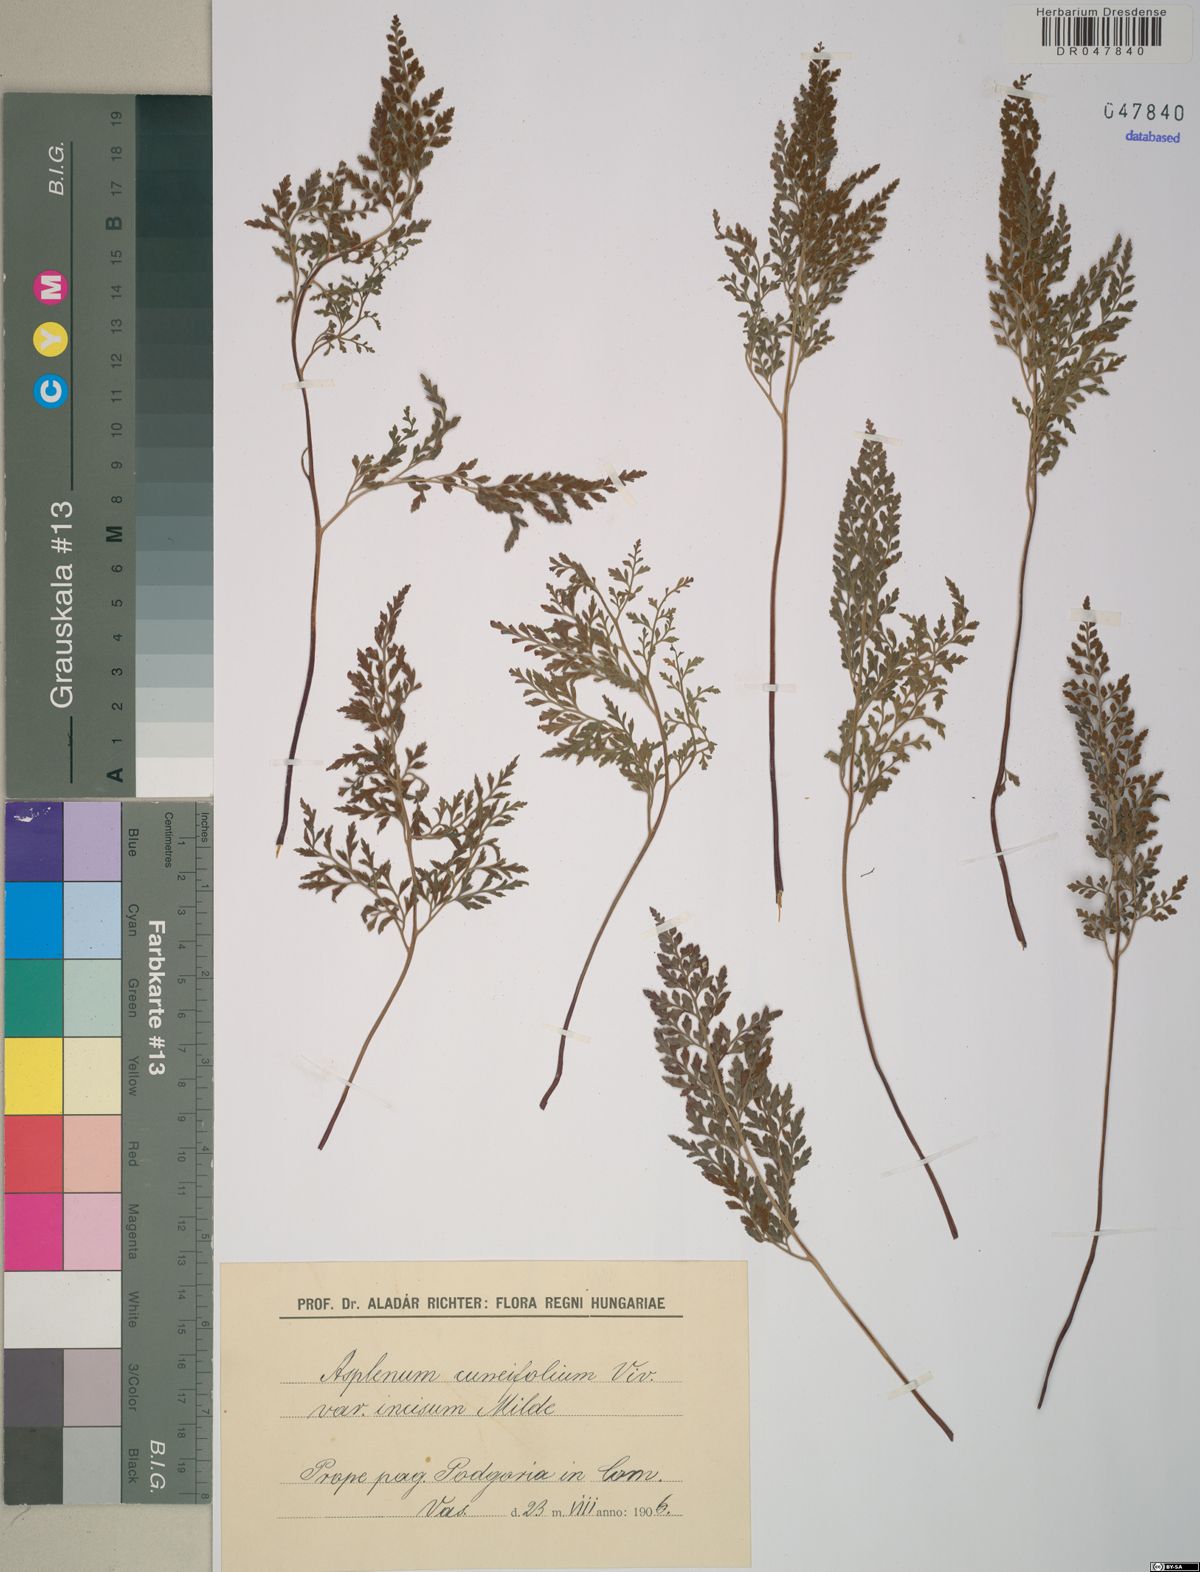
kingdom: Plantae
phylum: Tracheophyta
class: Polypodiopsida
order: Polypodiales
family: Aspleniaceae
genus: Asplenium
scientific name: Asplenium cuneifolium
